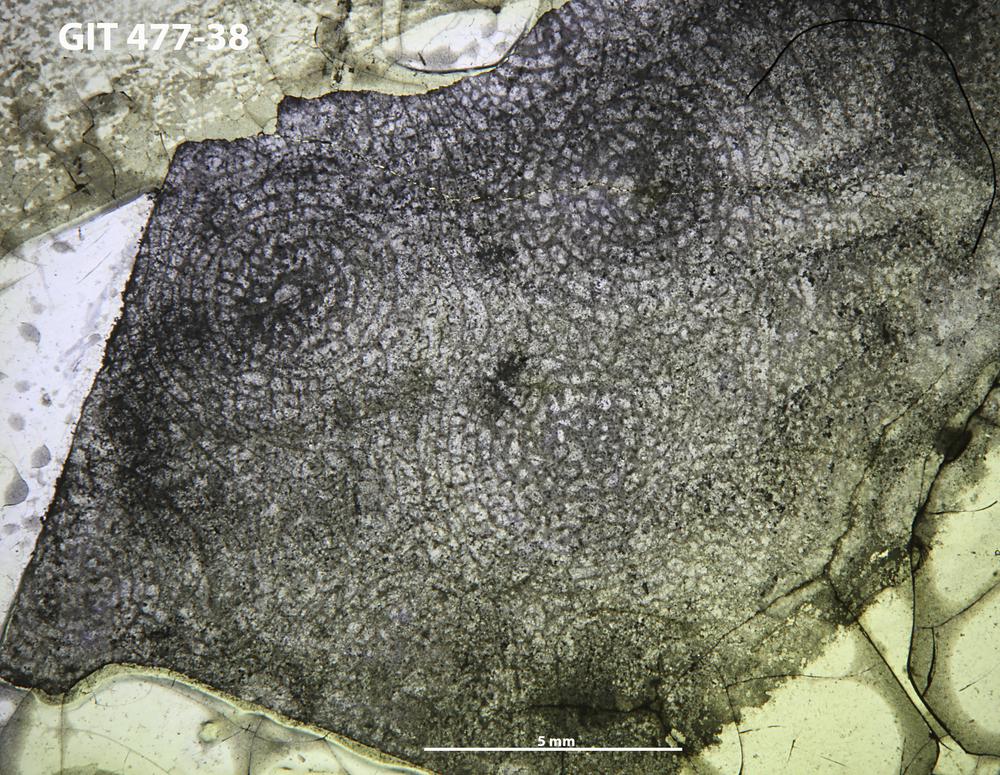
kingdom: Animalia
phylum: Porifera
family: Tienodictyidae
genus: Anostylostroma
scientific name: Anostylostroma
